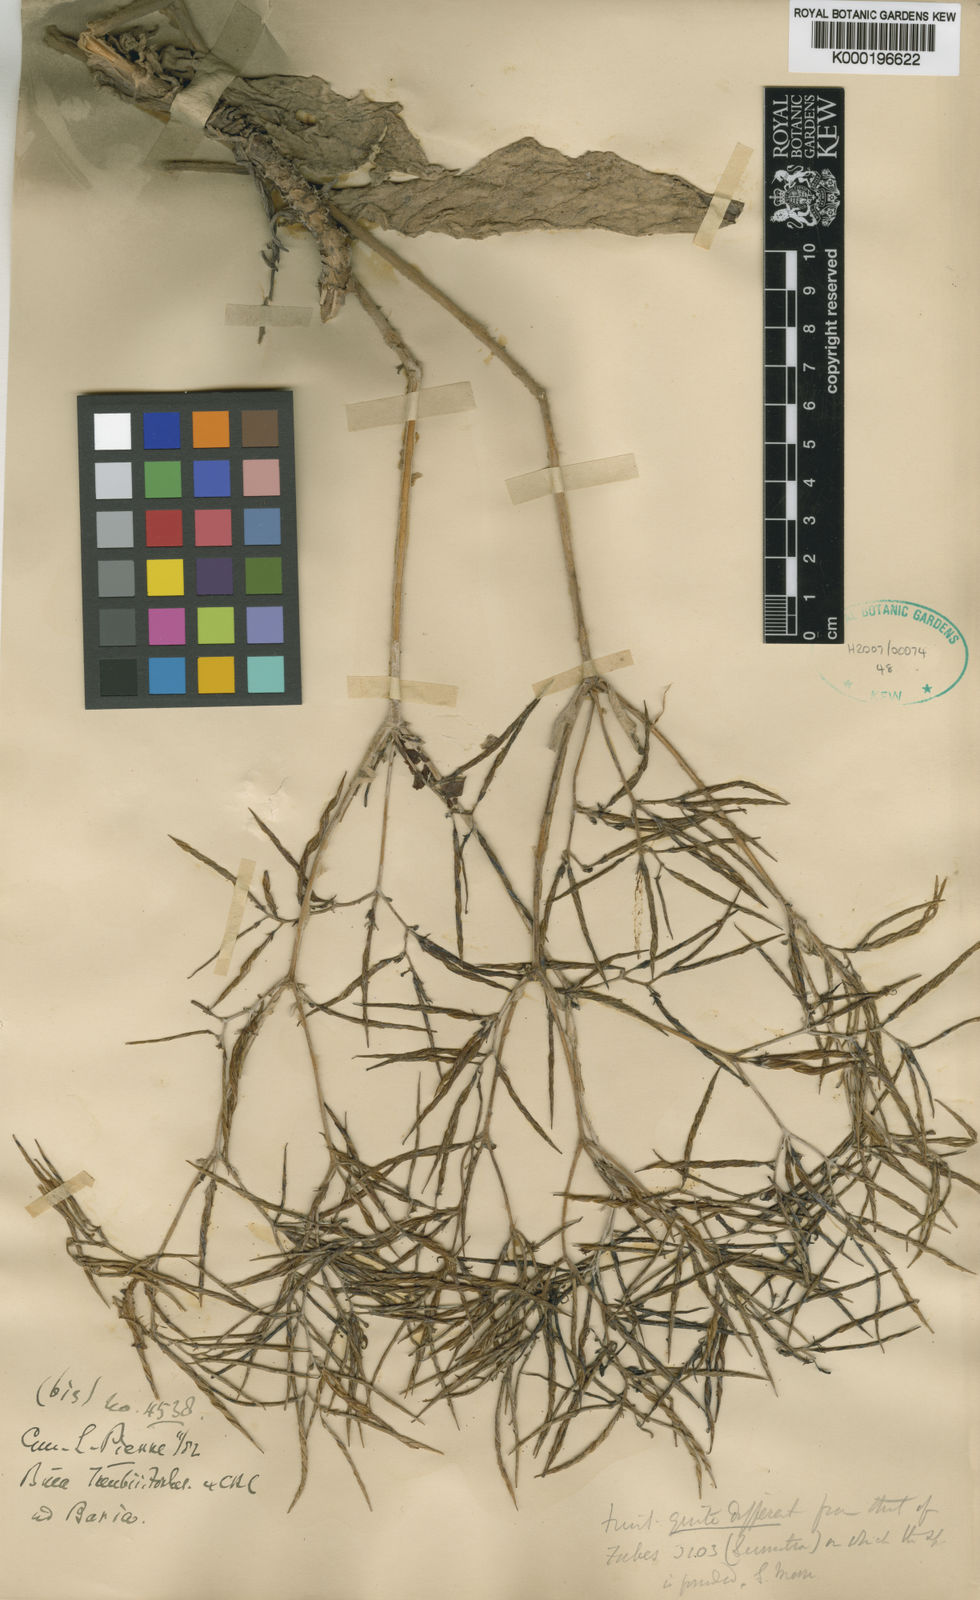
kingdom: Plantae
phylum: Tracheophyta
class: Magnoliopsida
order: Lamiales
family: Gesneriaceae
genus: Paraboea
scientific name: Paraboea dictyoneura
